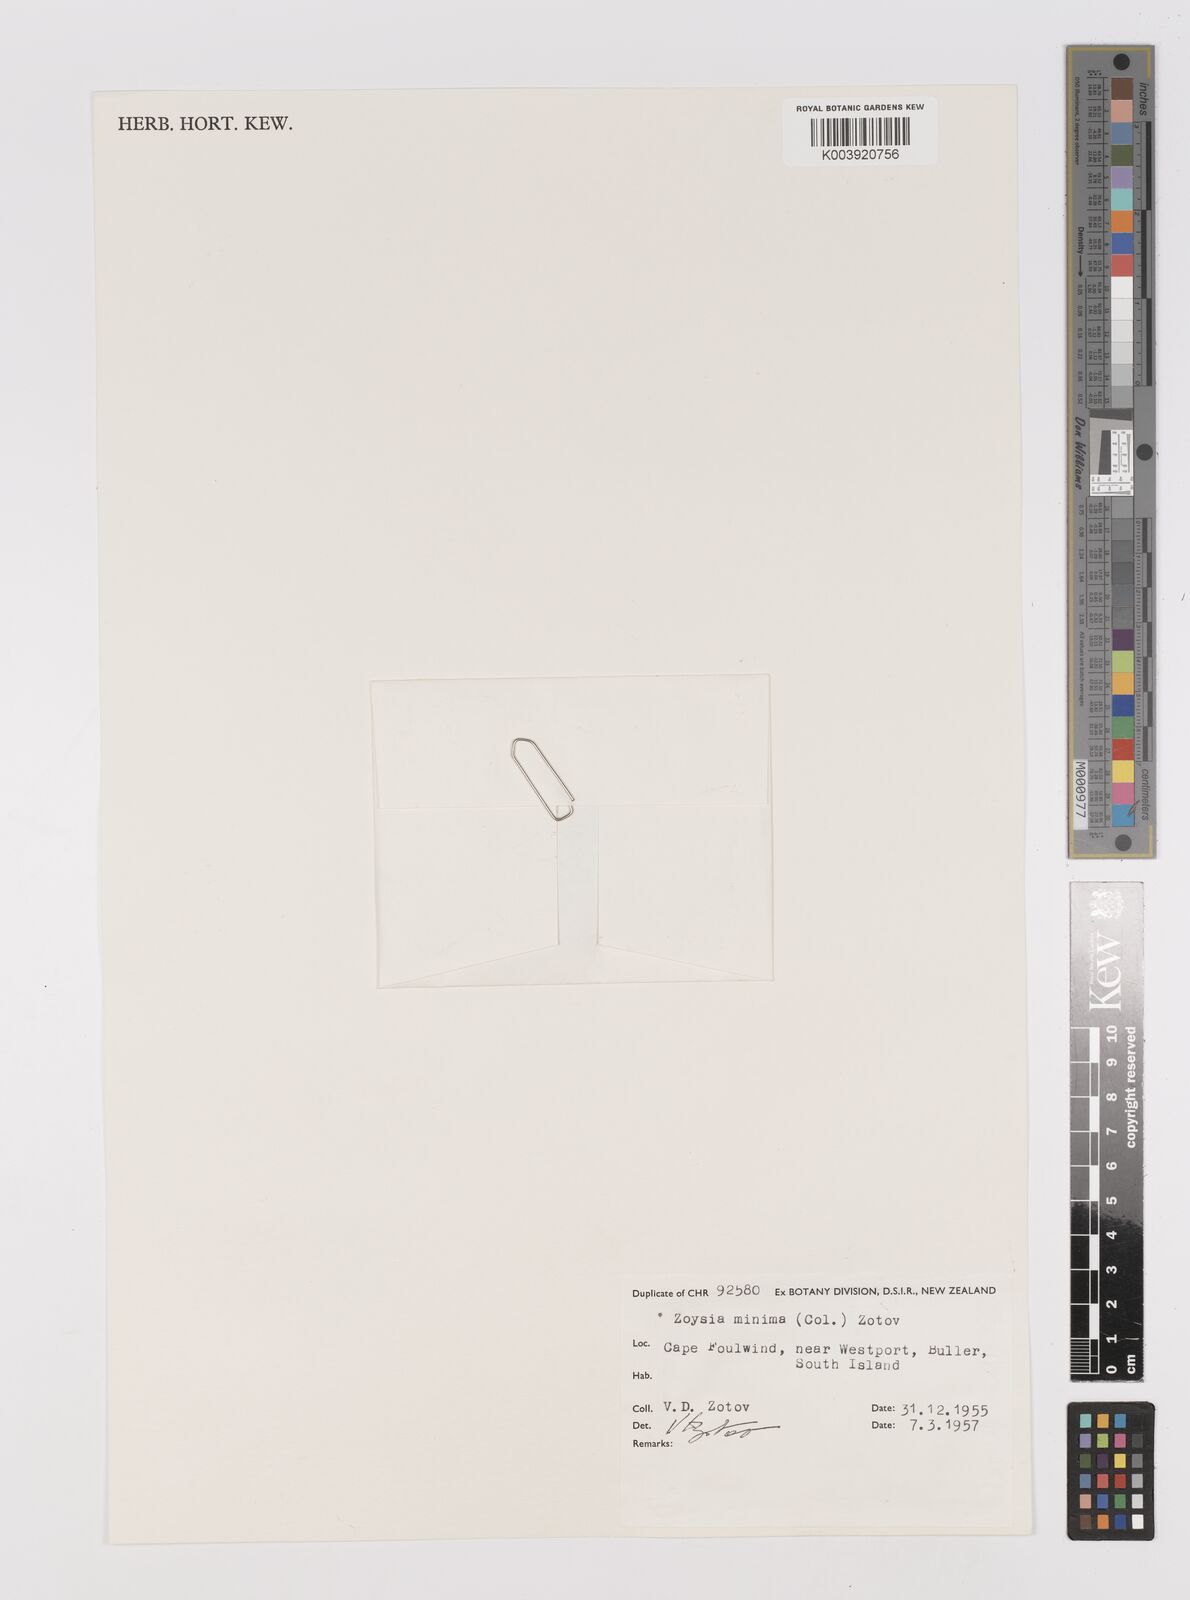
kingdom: Plantae
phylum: Tracheophyta
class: Liliopsida
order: Poales
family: Poaceae
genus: Zoysia
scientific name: Zoysia minima
